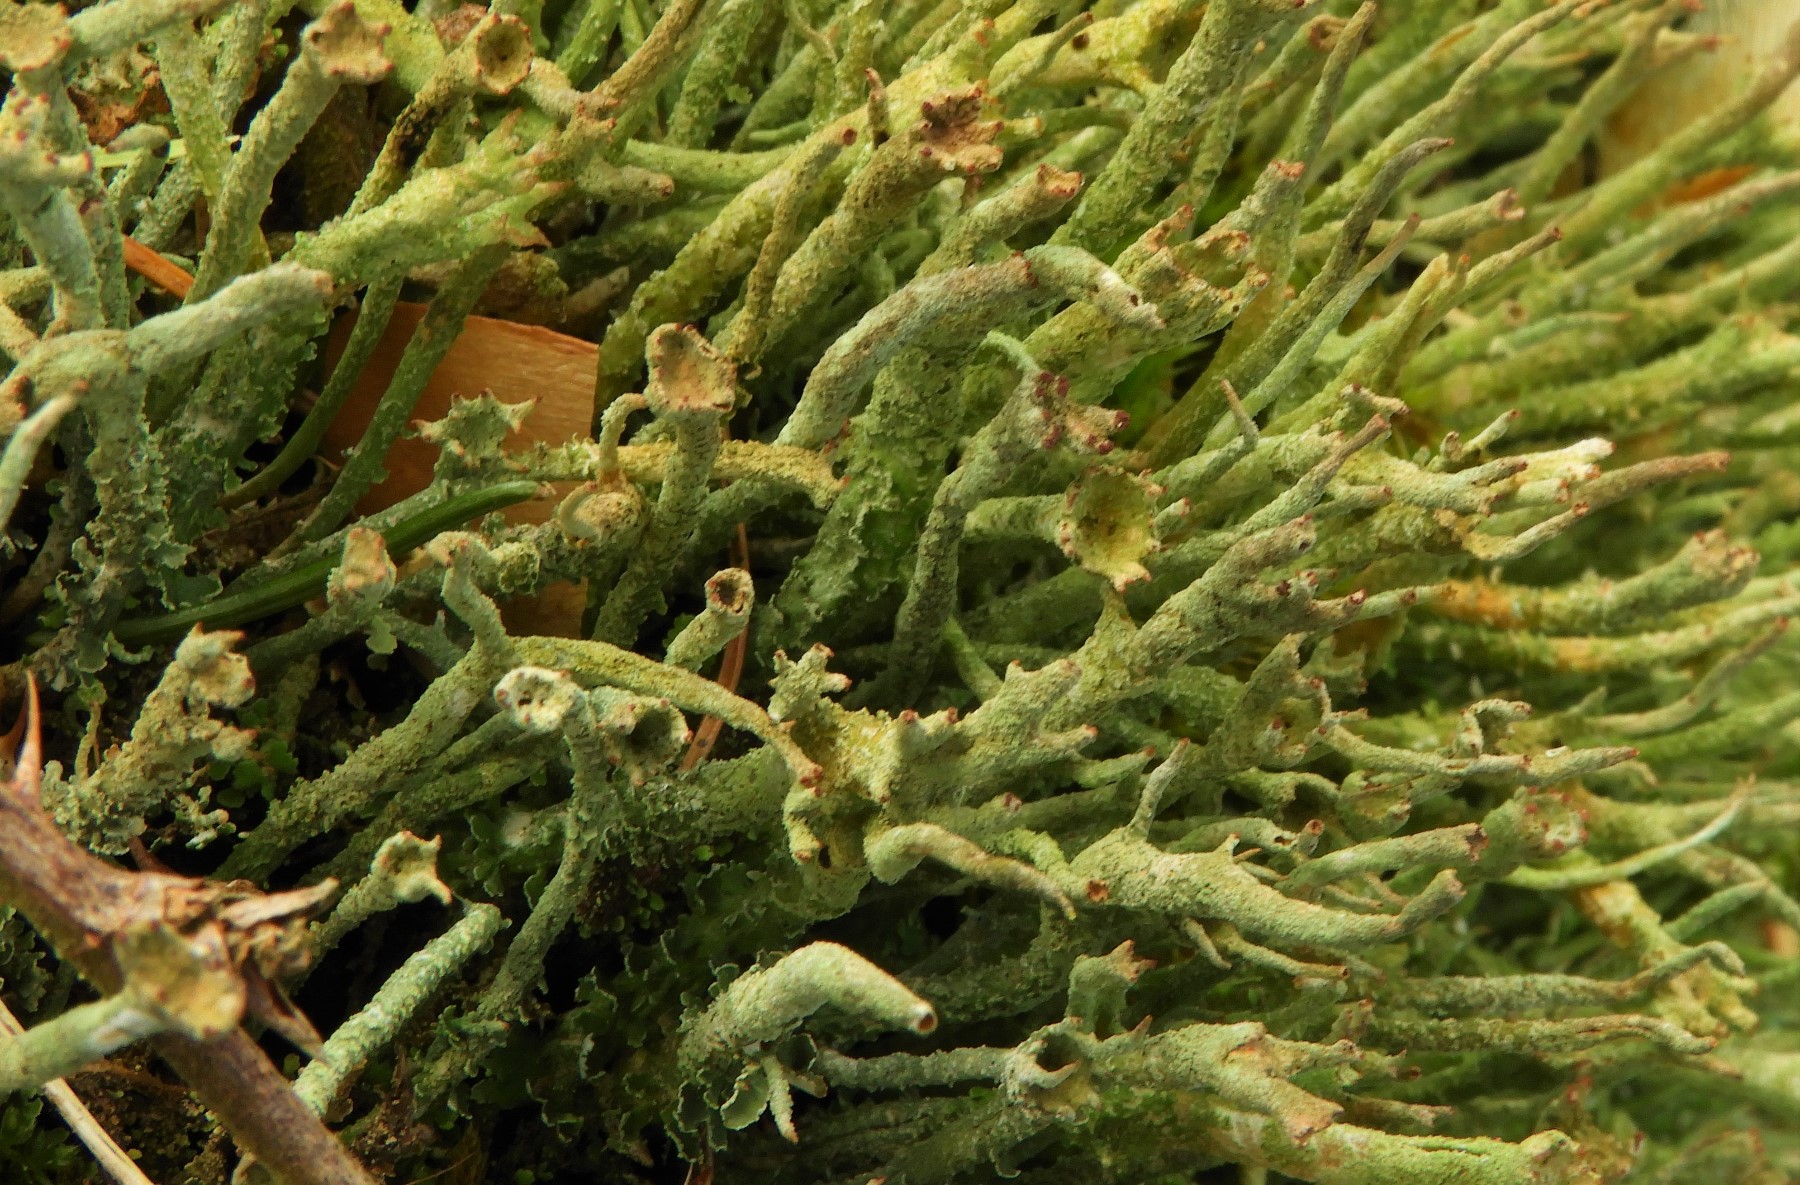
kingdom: Fungi
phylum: Ascomycota
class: Lecanoromycetes
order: Lecanorales
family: Cladoniaceae
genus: Cladonia
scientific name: Cladonia ochrochlora
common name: stød-bægerlav
